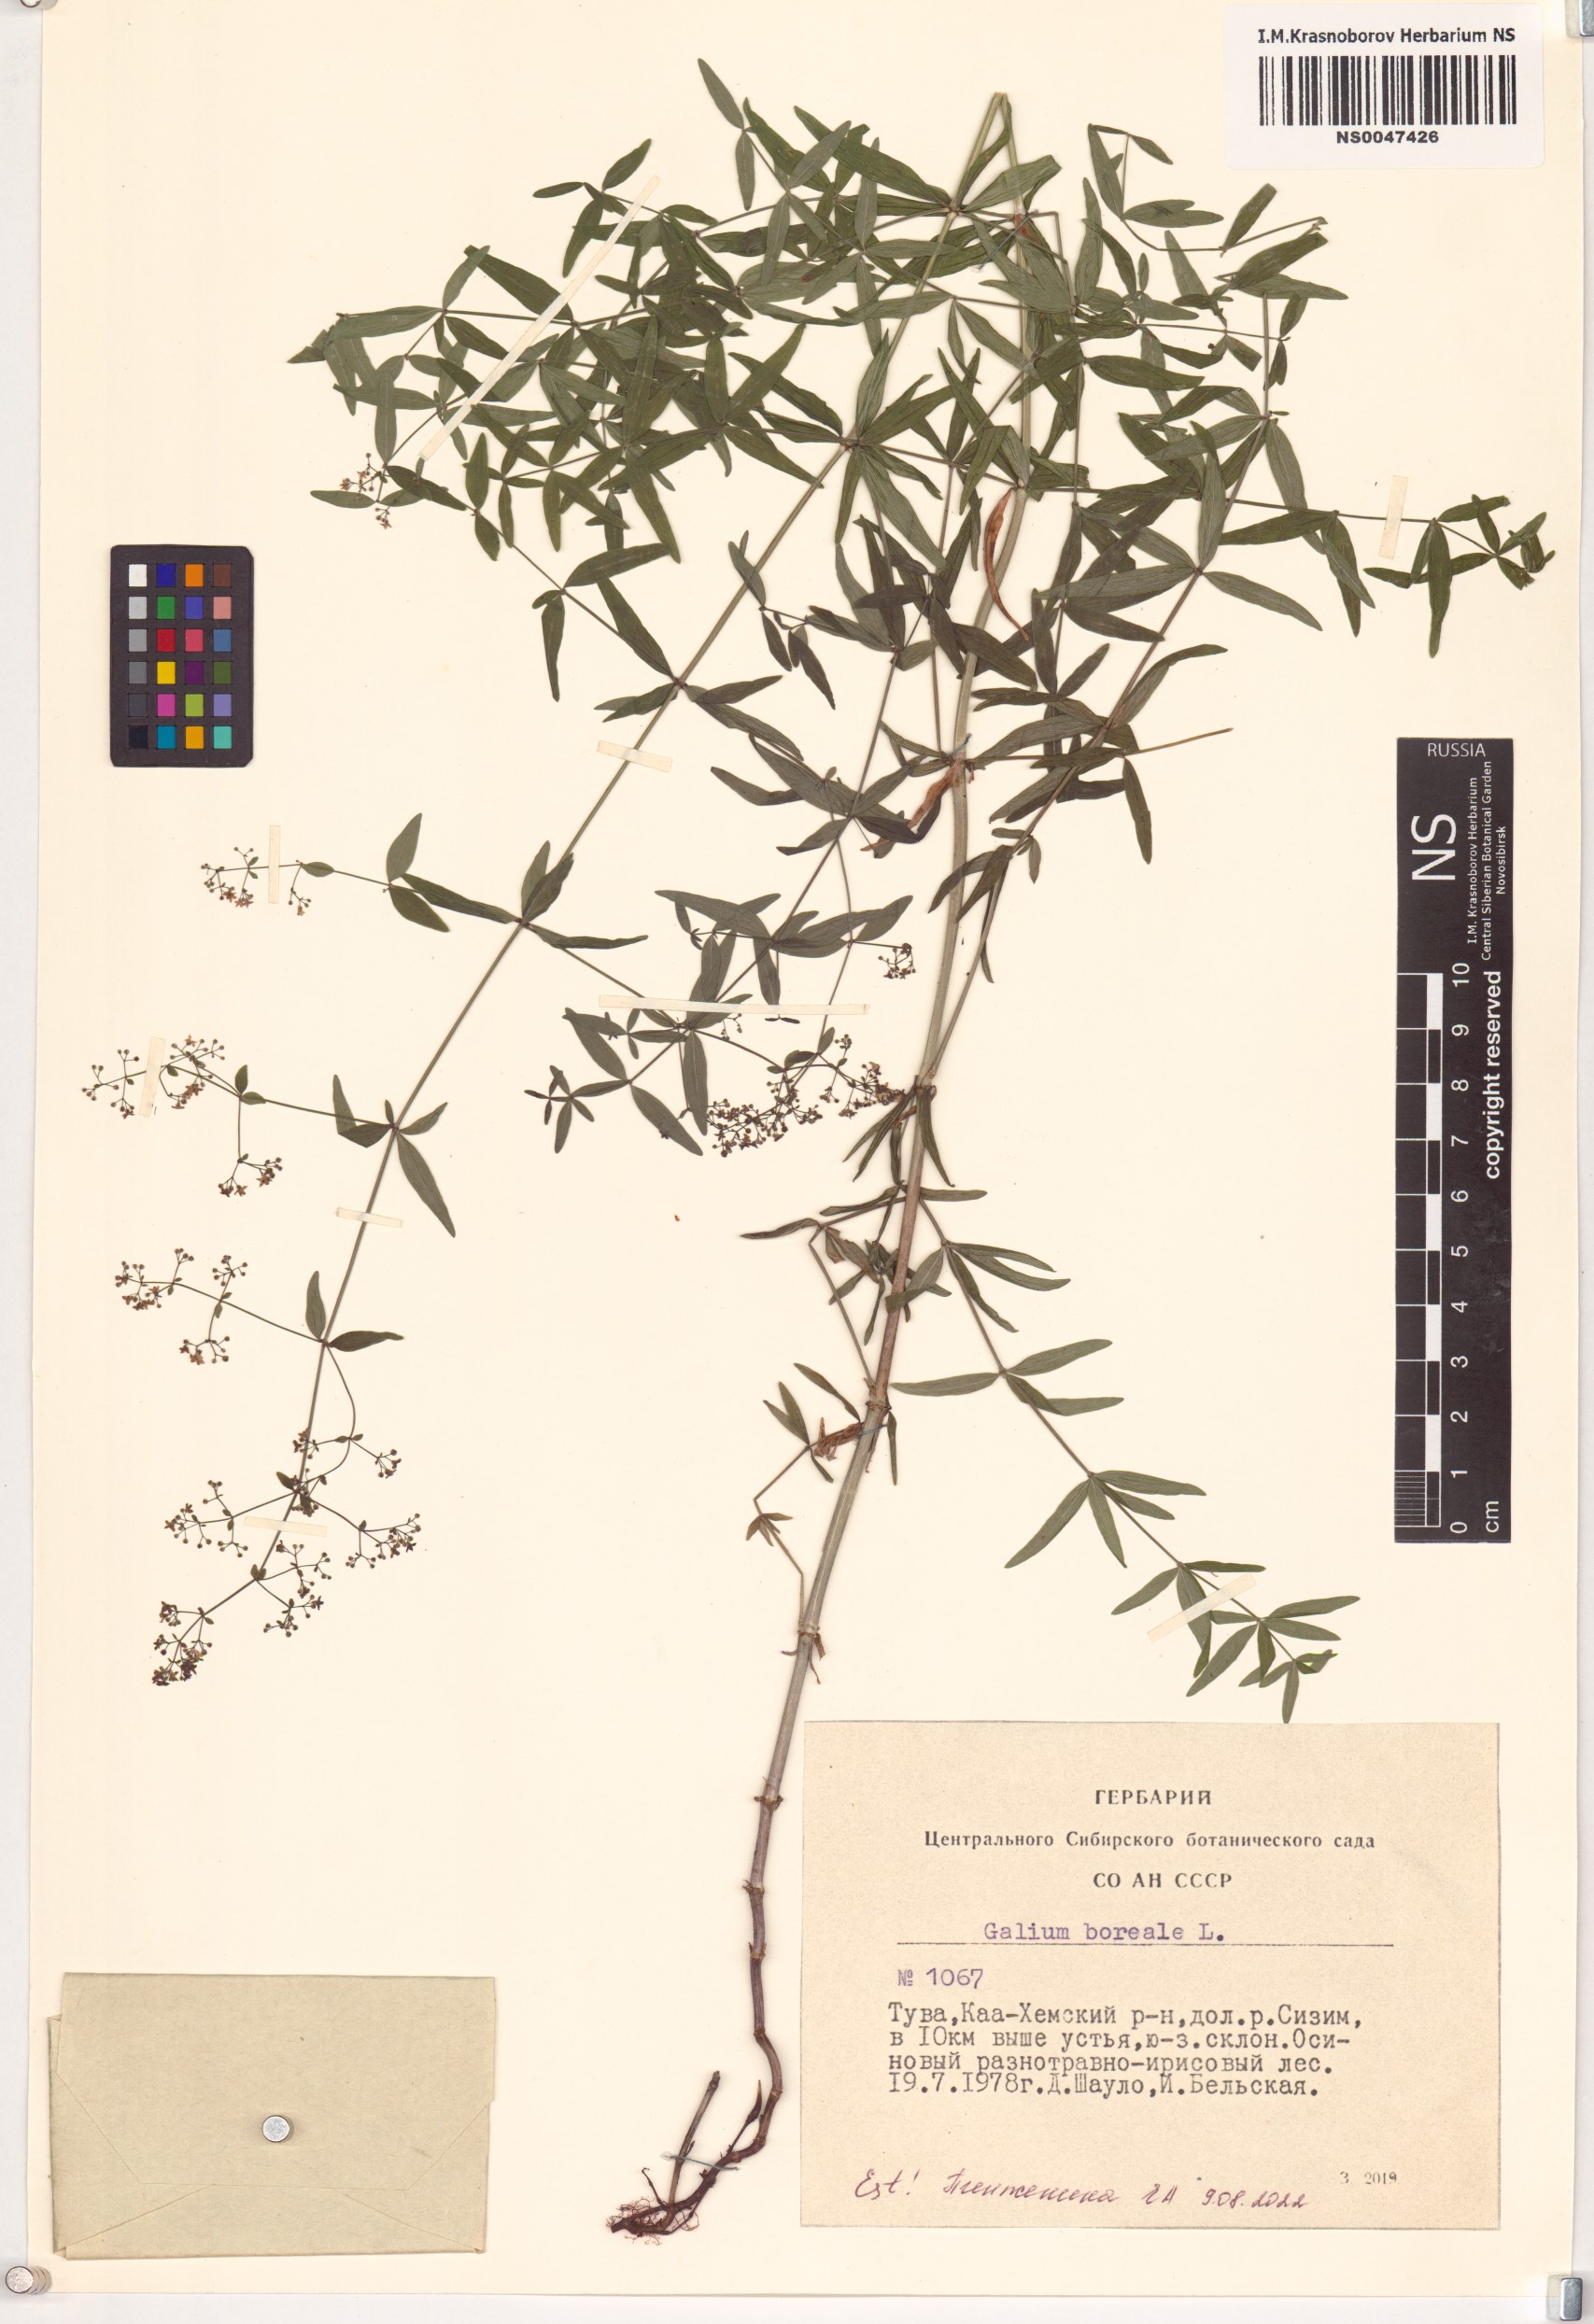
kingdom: Plantae
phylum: Tracheophyta
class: Magnoliopsida
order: Gentianales
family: Rubiaceae
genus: Galium
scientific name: Galium boreale
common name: Northern bedstraw
